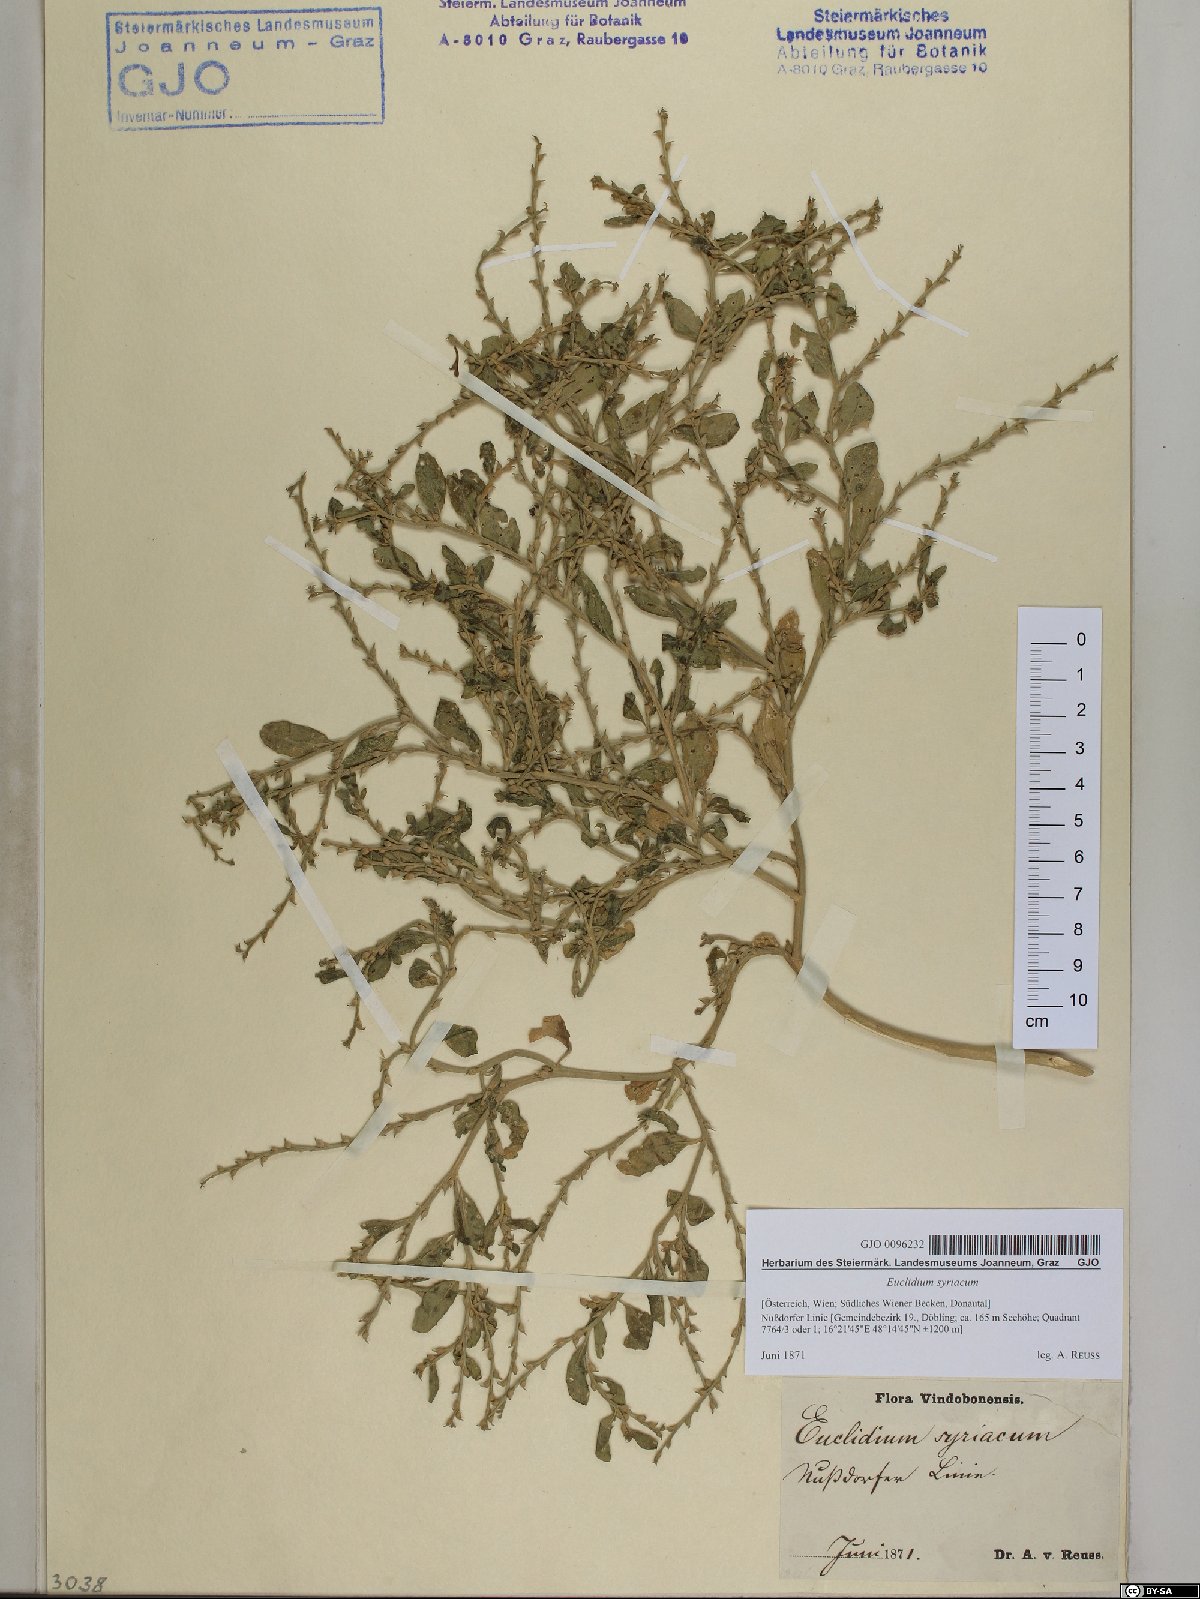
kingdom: Plantae
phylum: Tracheophyta
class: Magnoliopsida
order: Brassicales
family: Brassicaceae
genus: Euclidium
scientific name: Euclidium syriacum
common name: Syrian mustard
